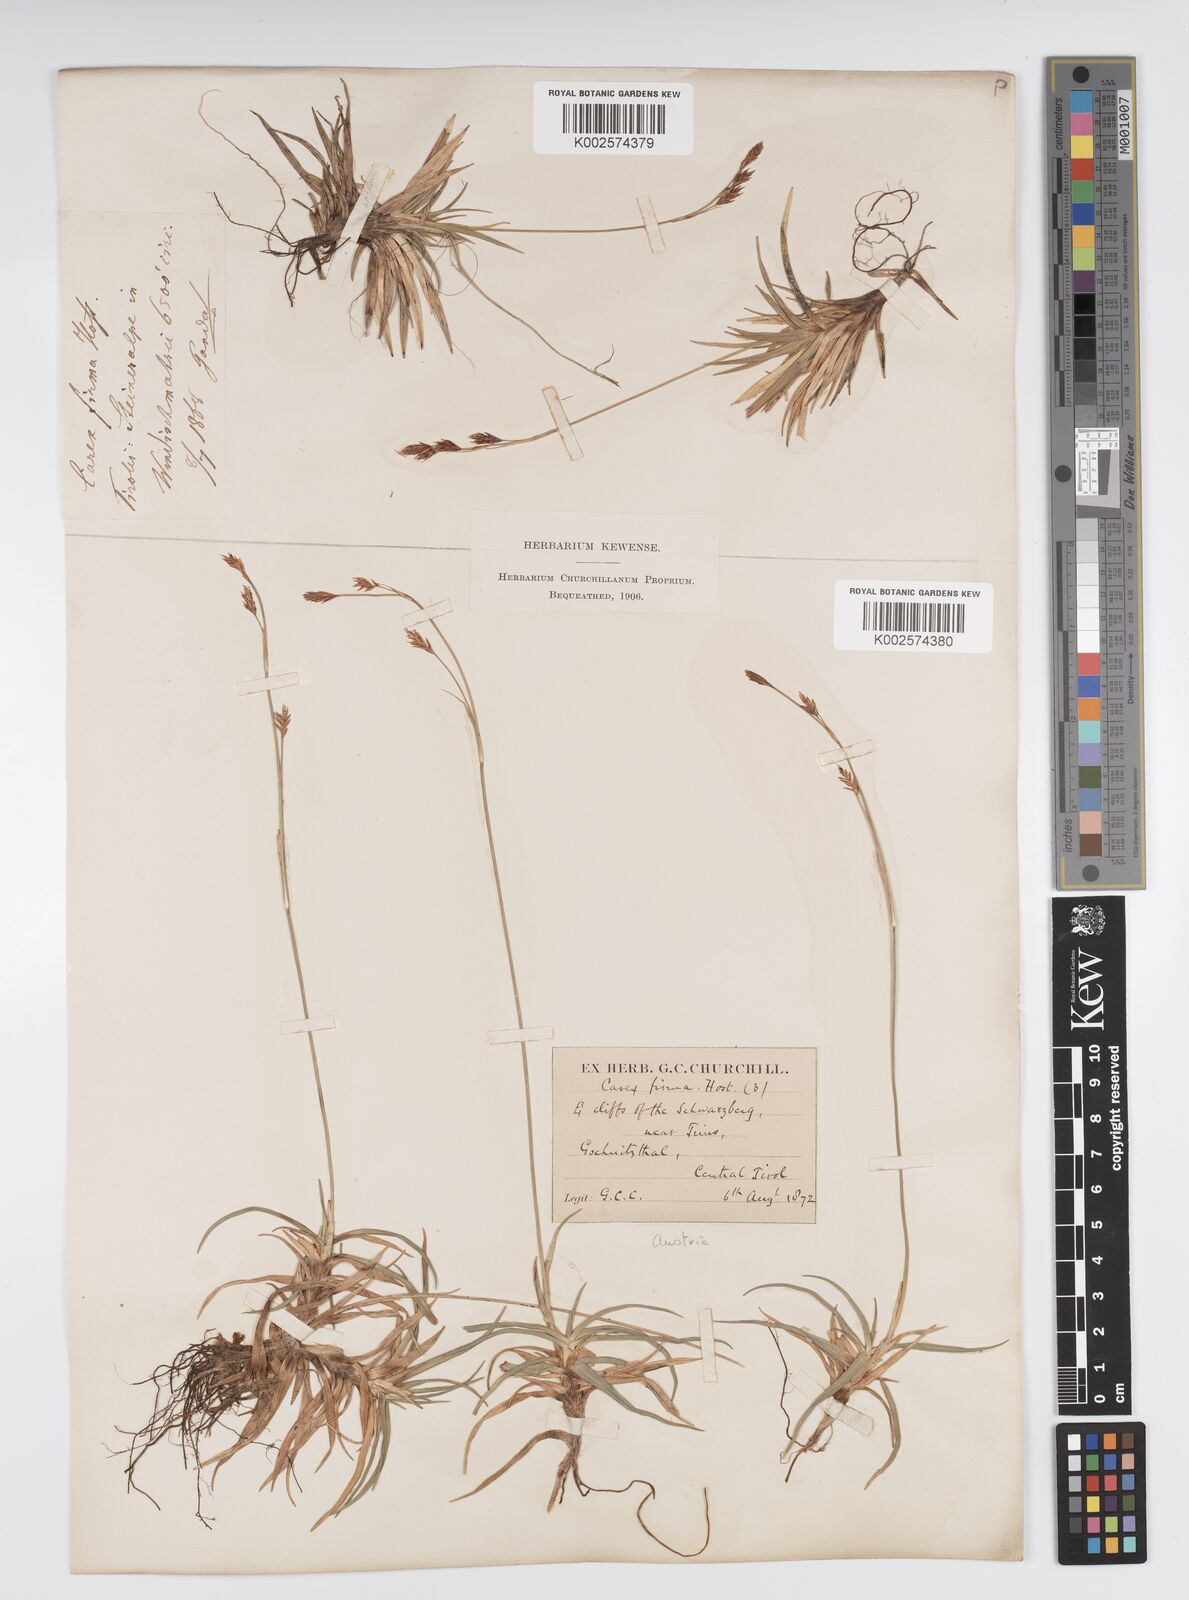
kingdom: Plantae
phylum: Tracheophyta
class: Liliopsida
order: Poales
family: Cyperaceae
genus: Carex
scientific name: Carex firma
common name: Dwarf pillow sedge
